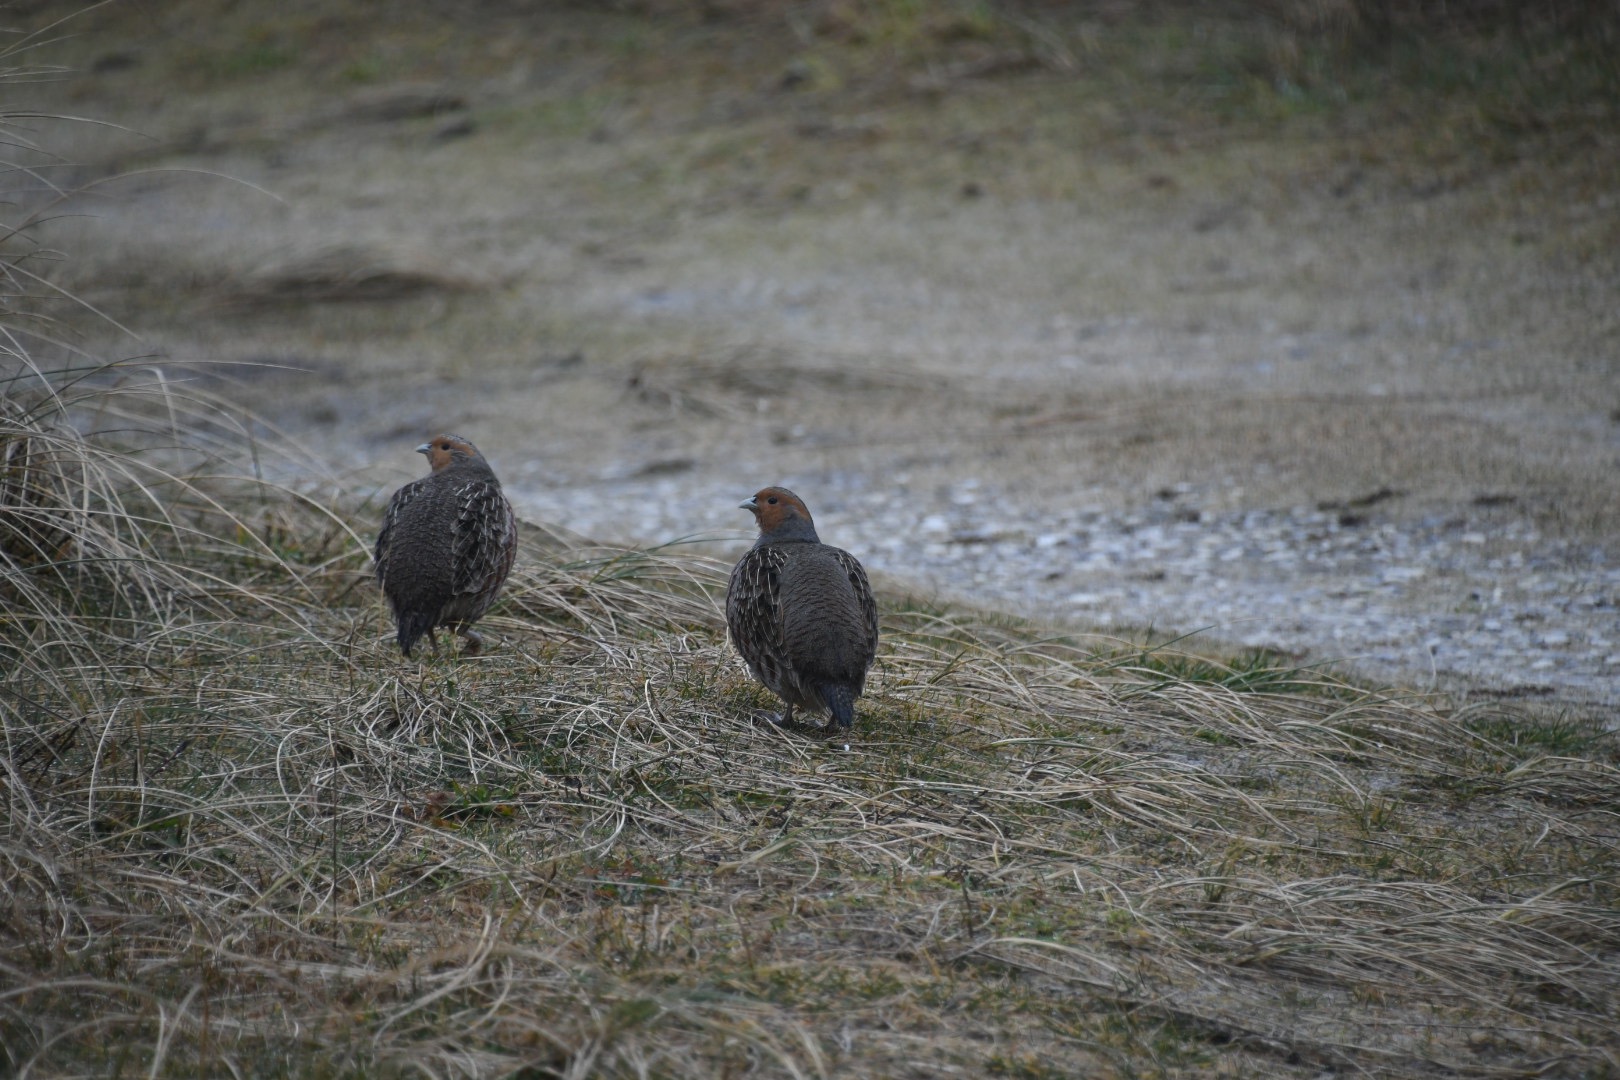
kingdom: Animalia
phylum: Chordata
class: Aves
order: Galliformes
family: Phasianidae
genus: Perdix
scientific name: Perdix perdix
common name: Agerhøne
